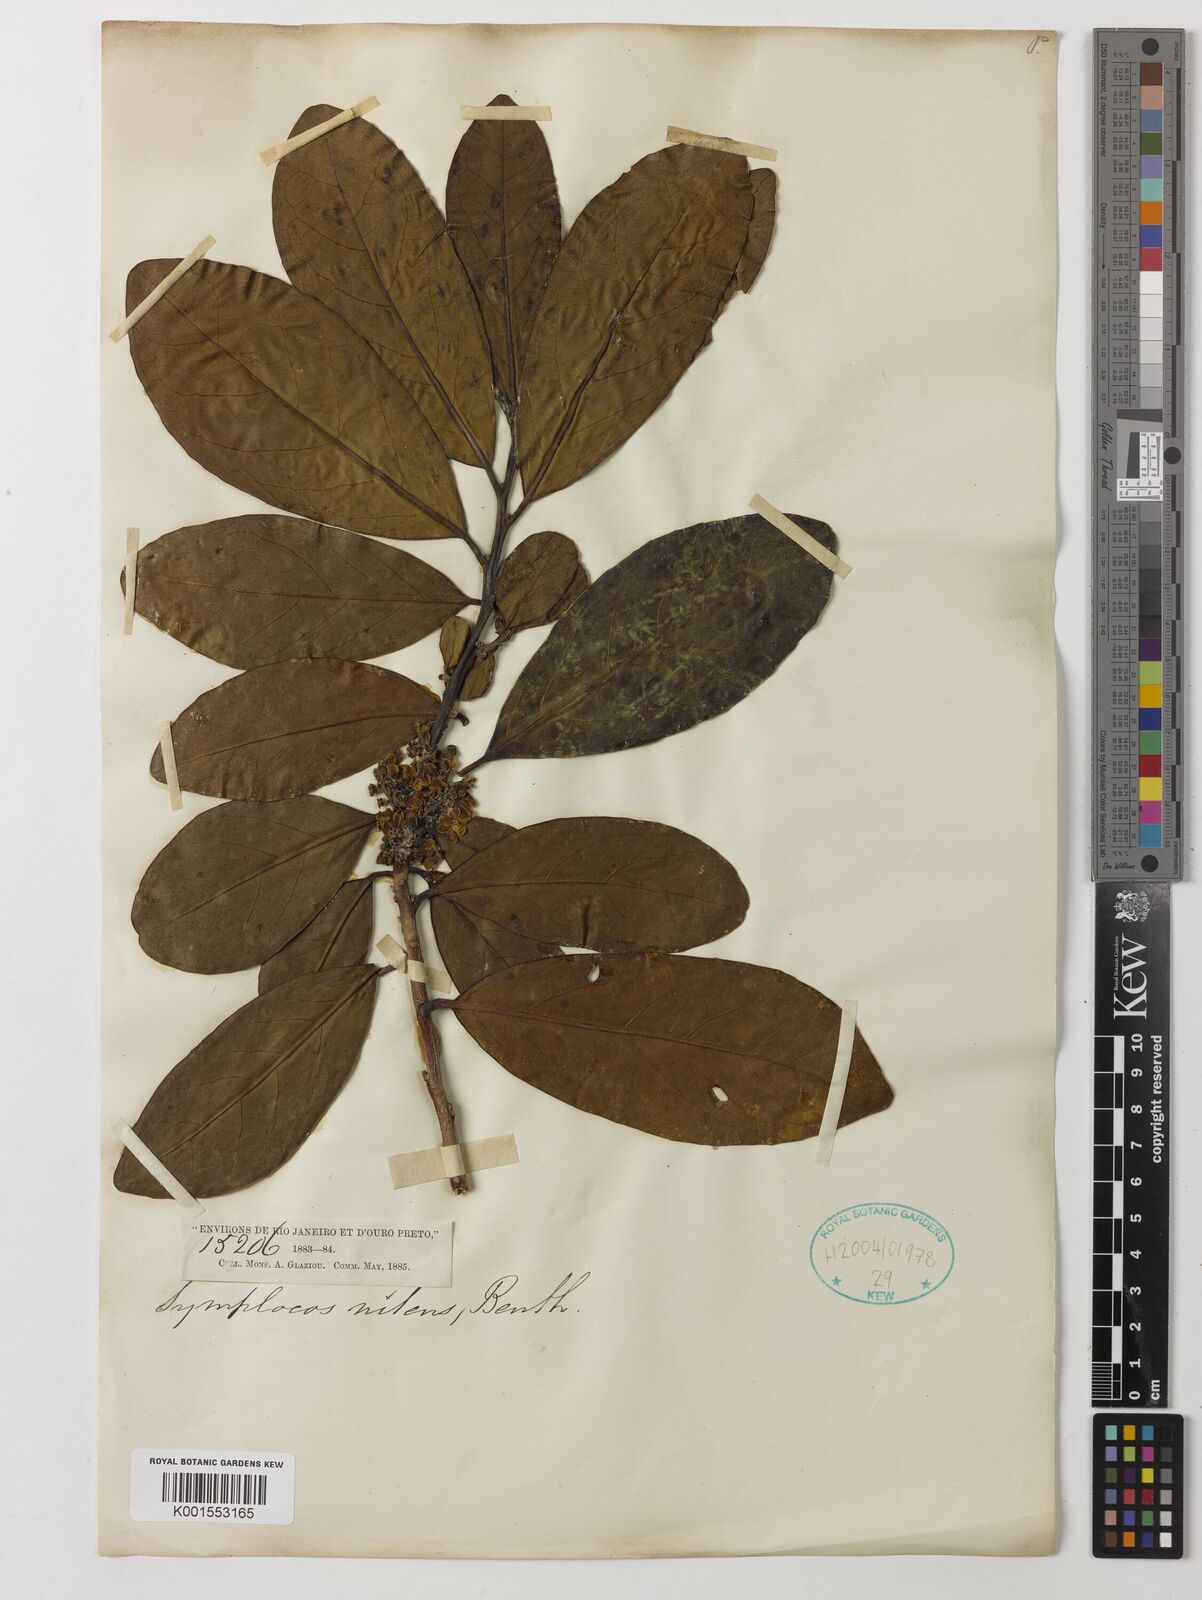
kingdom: Plantae
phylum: Tracheophyta
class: Magnoliopsida
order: Ericales
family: Symplocaceae
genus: Symplocos
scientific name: Symplocos nitens
